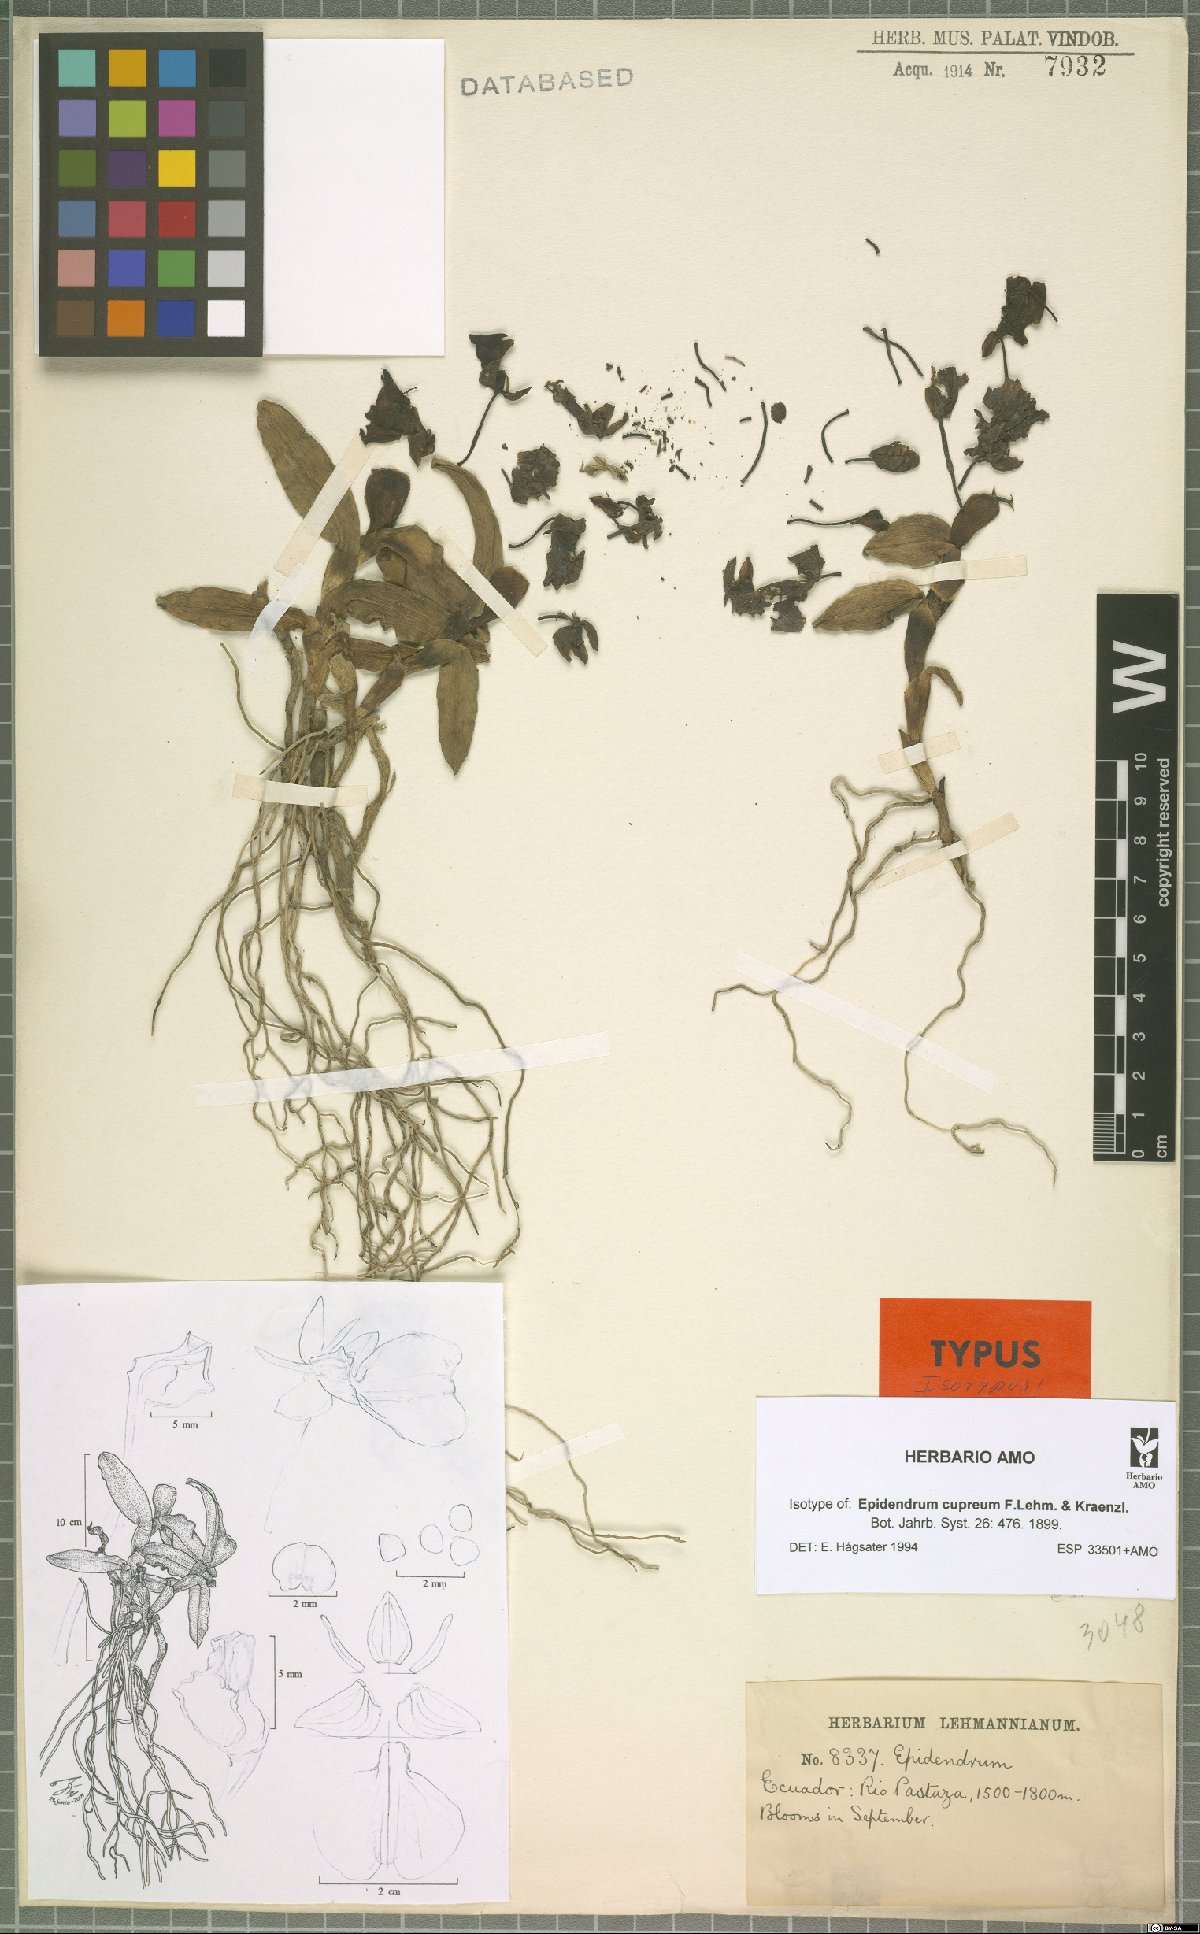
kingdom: Plantae
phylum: Tracheophyta
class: Liliopsida
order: Asparagales
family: Orchidaceae
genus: Epidendrum
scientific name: Epidendrum cupreum
